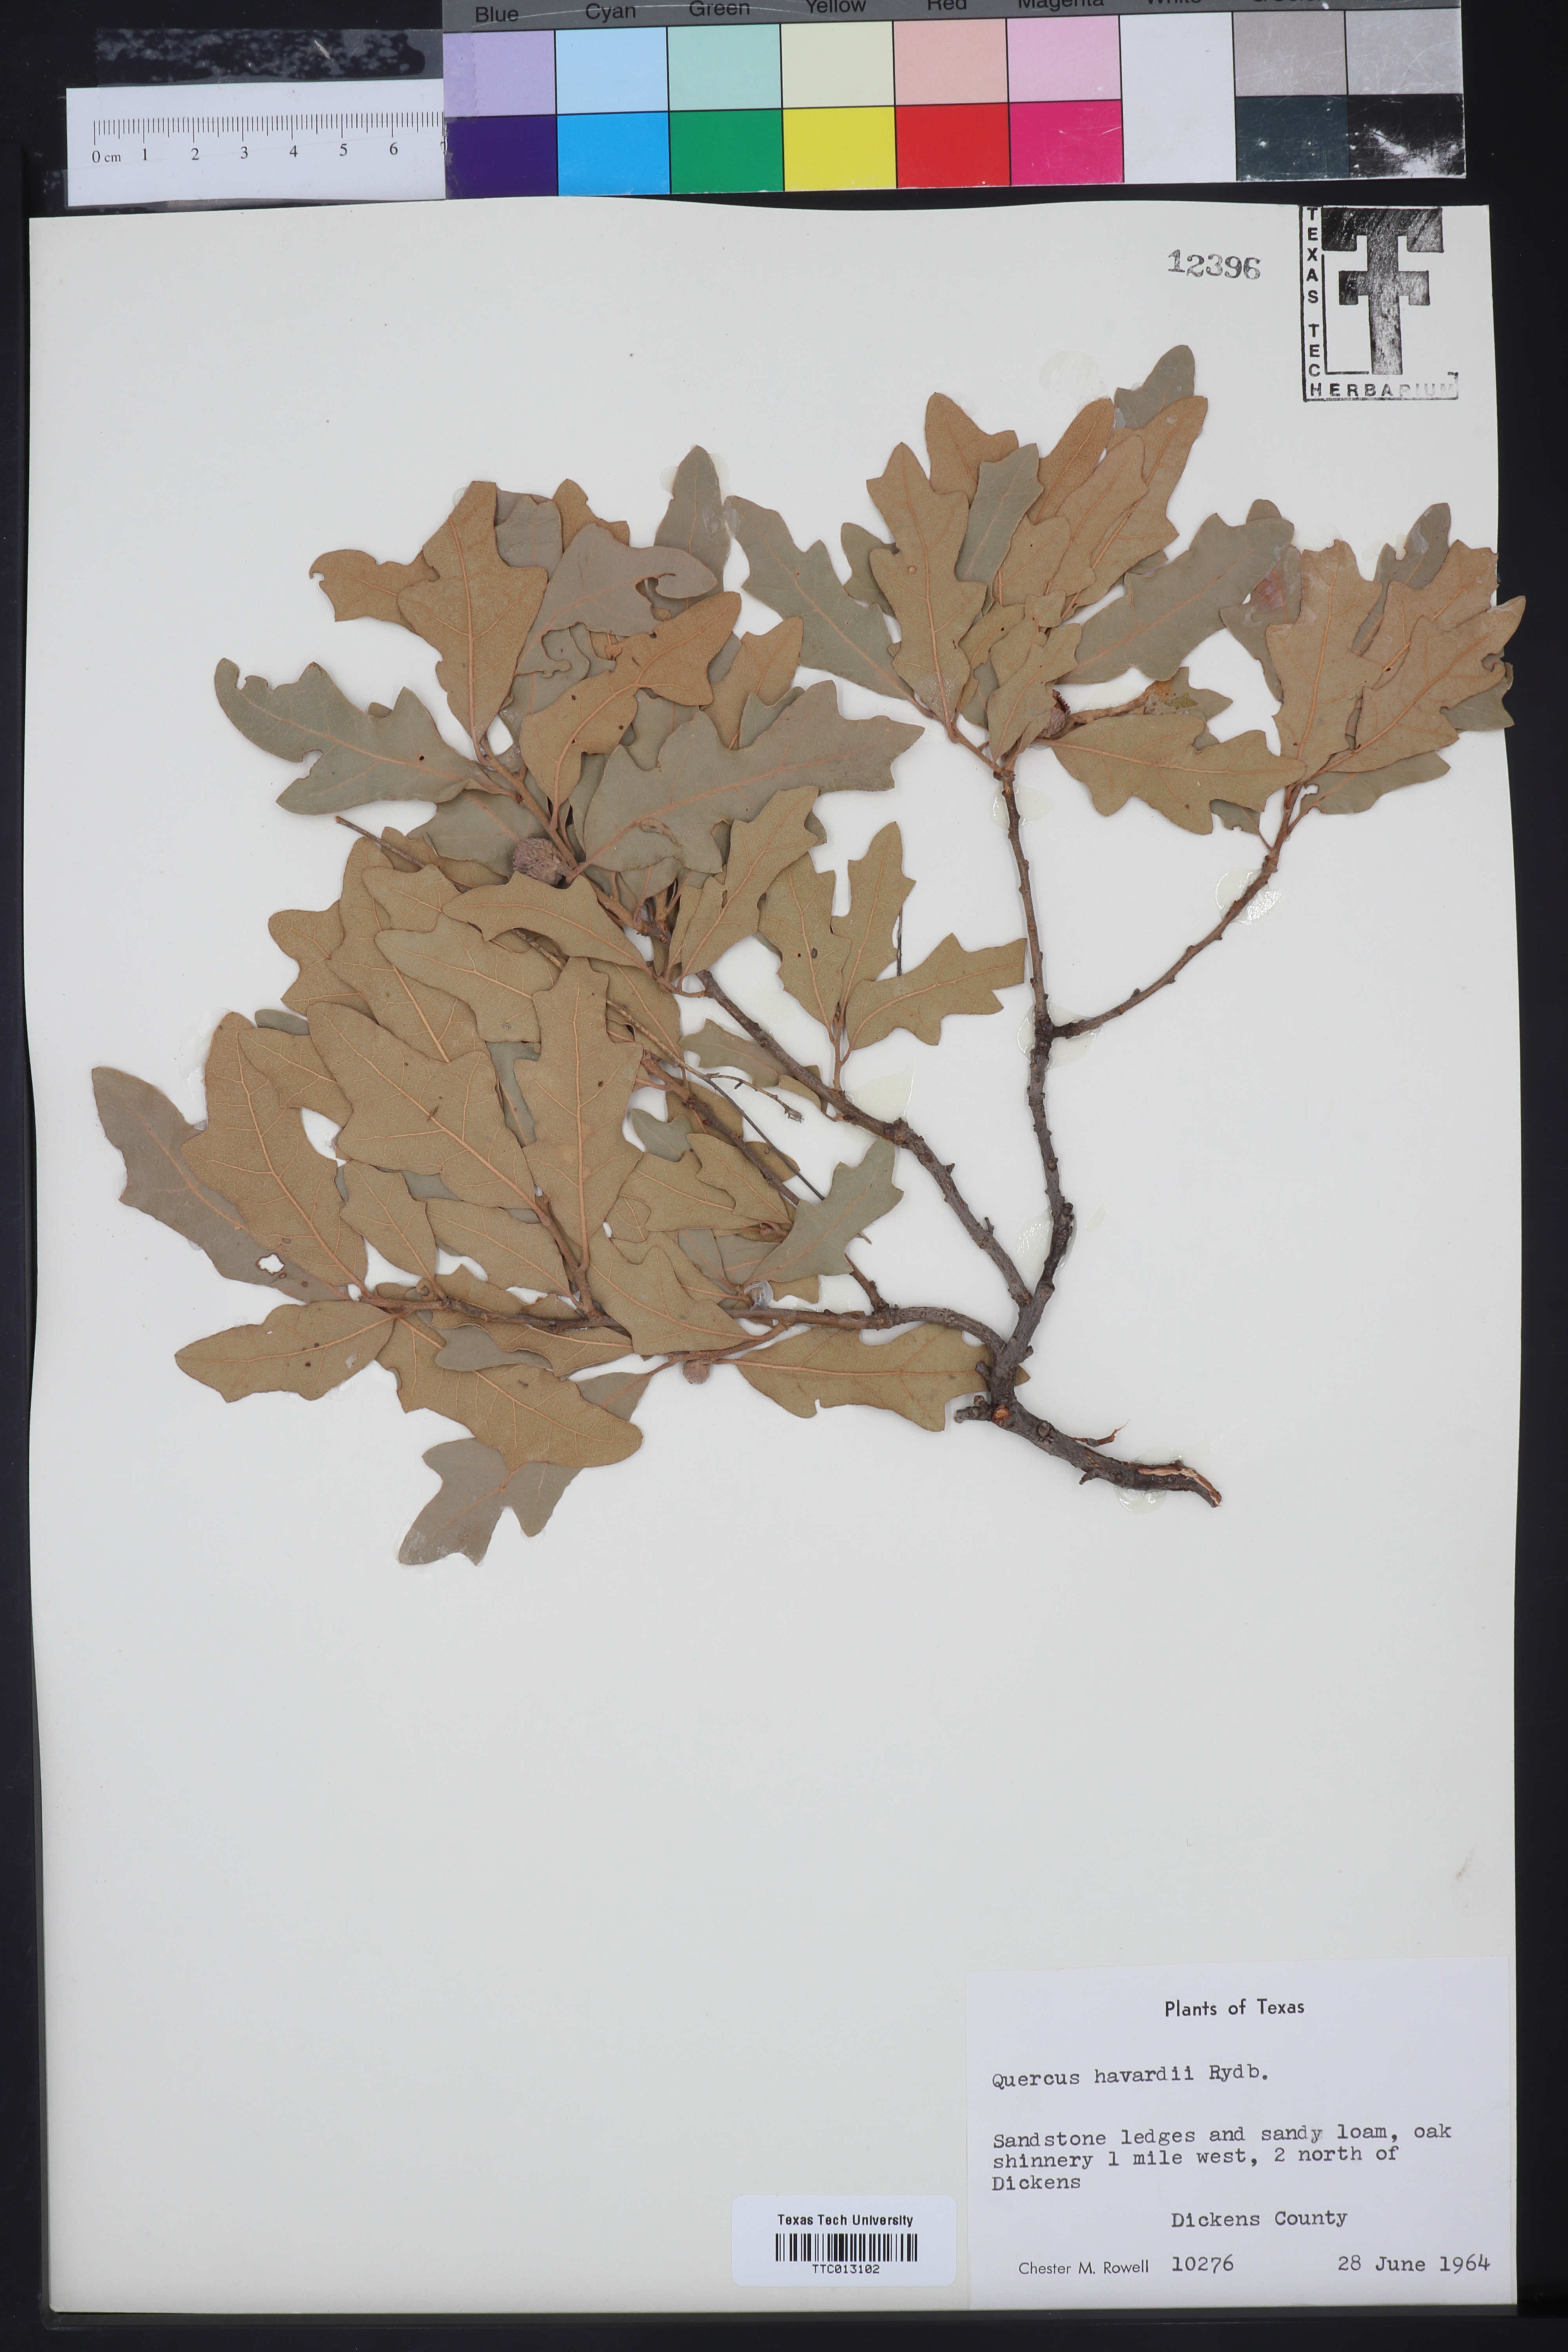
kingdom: Plantae
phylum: Tracheophyta
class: Magnoliopsida
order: Fagales
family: Fagaceae
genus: Quercus
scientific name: Quercus havardii
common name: Shinnery oak
